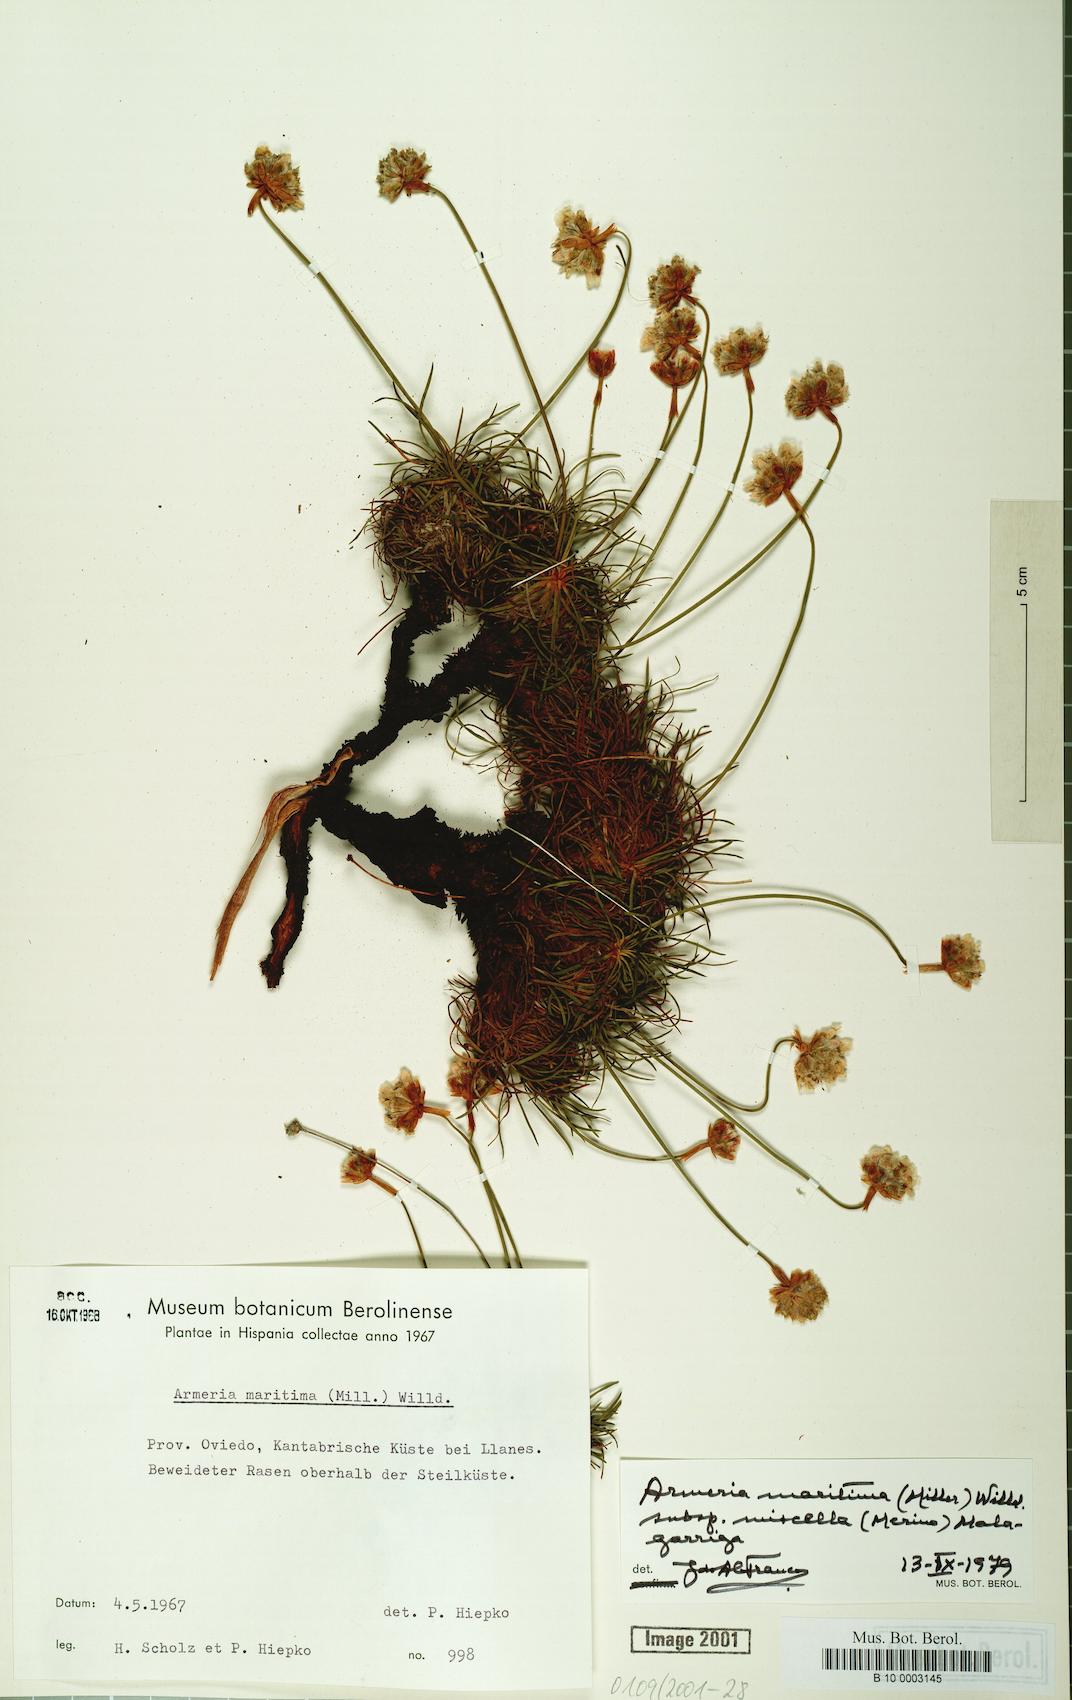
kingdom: Plantae
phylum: Tracheophyta
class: Magnoliopsida
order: Caryophyllales
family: Plumbaginaceae
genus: Armeria
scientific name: Armeria maritima
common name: Thrift
